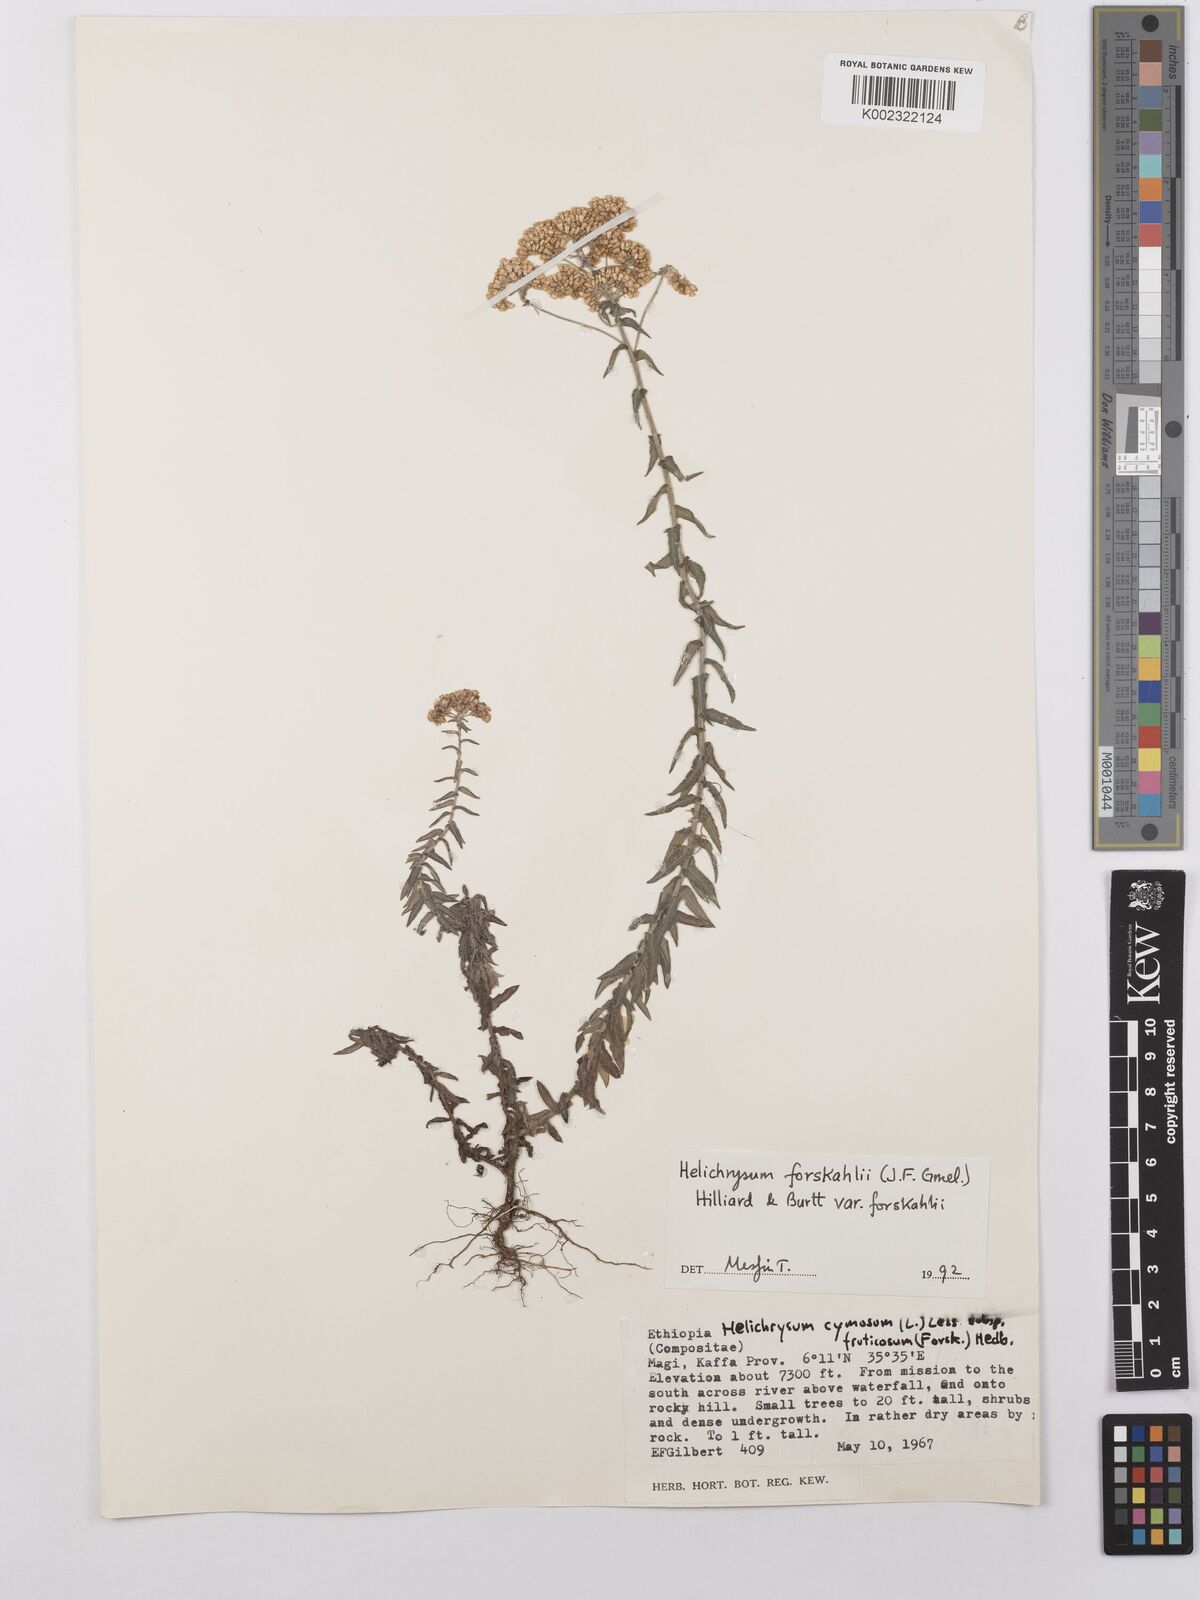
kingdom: Plantae
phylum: Tracheophyta
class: Magnoliopsida
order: Asterales
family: Asteraceae
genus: Helichrysum
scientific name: Helichrysum forskahlii
